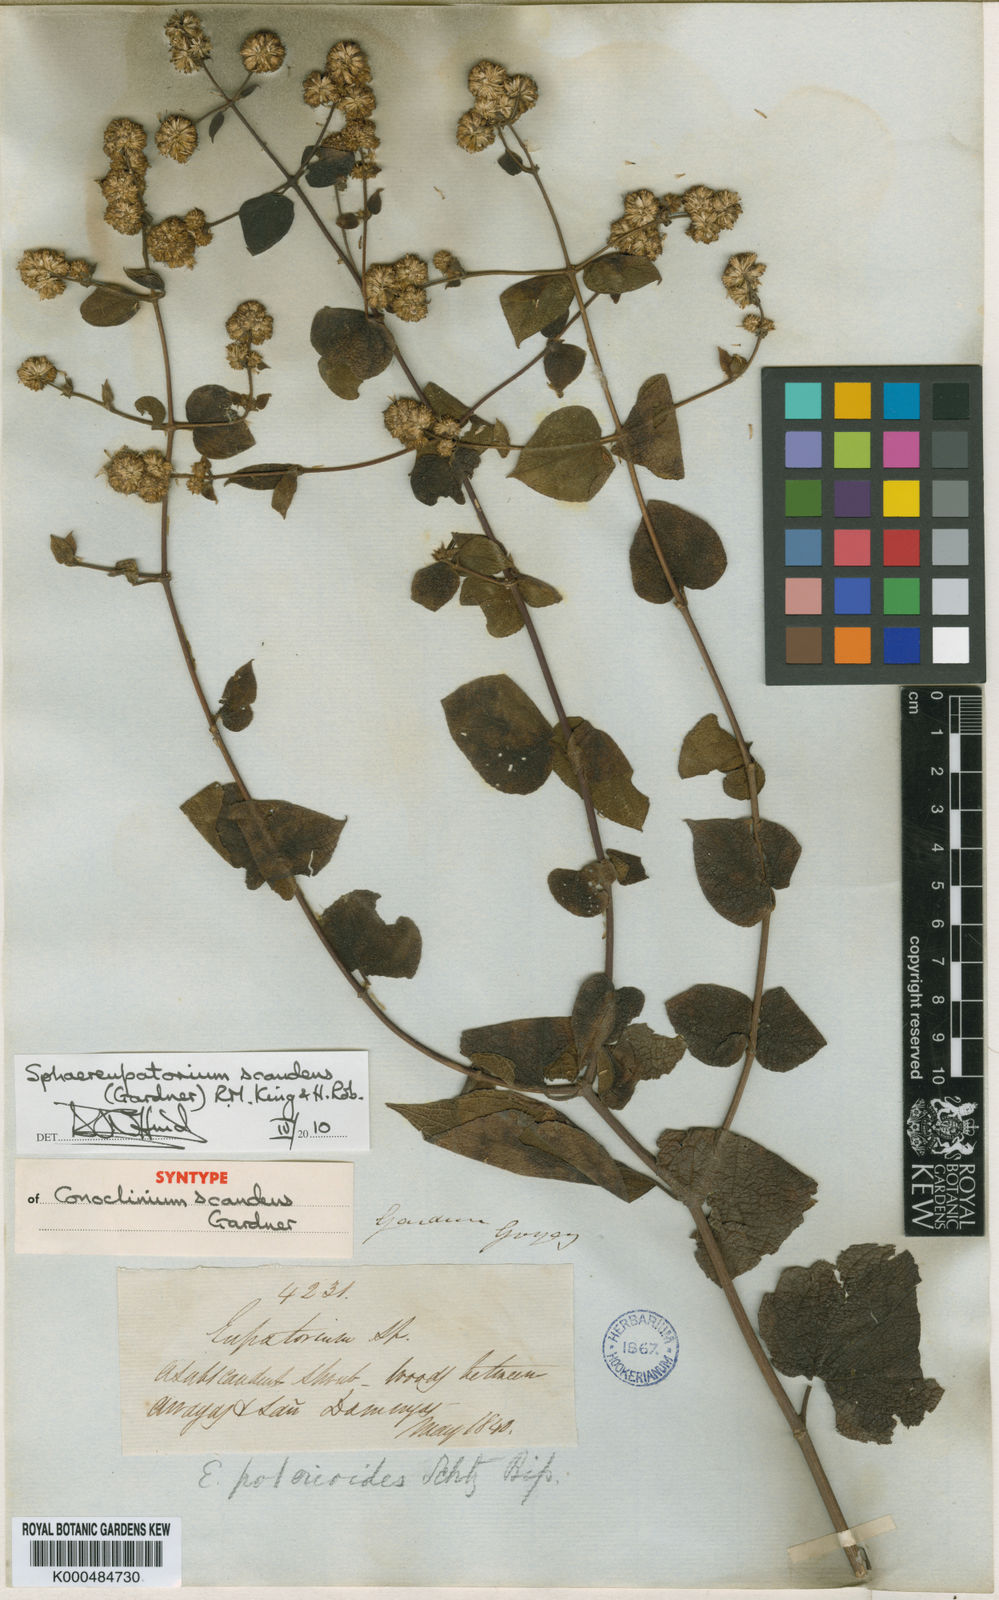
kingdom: Plantae
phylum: Tracheophyta
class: Magnoliopsida
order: Asterales
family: Asteraceae
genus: Sphaereupatorium
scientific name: Sphaereupatorium scandens
